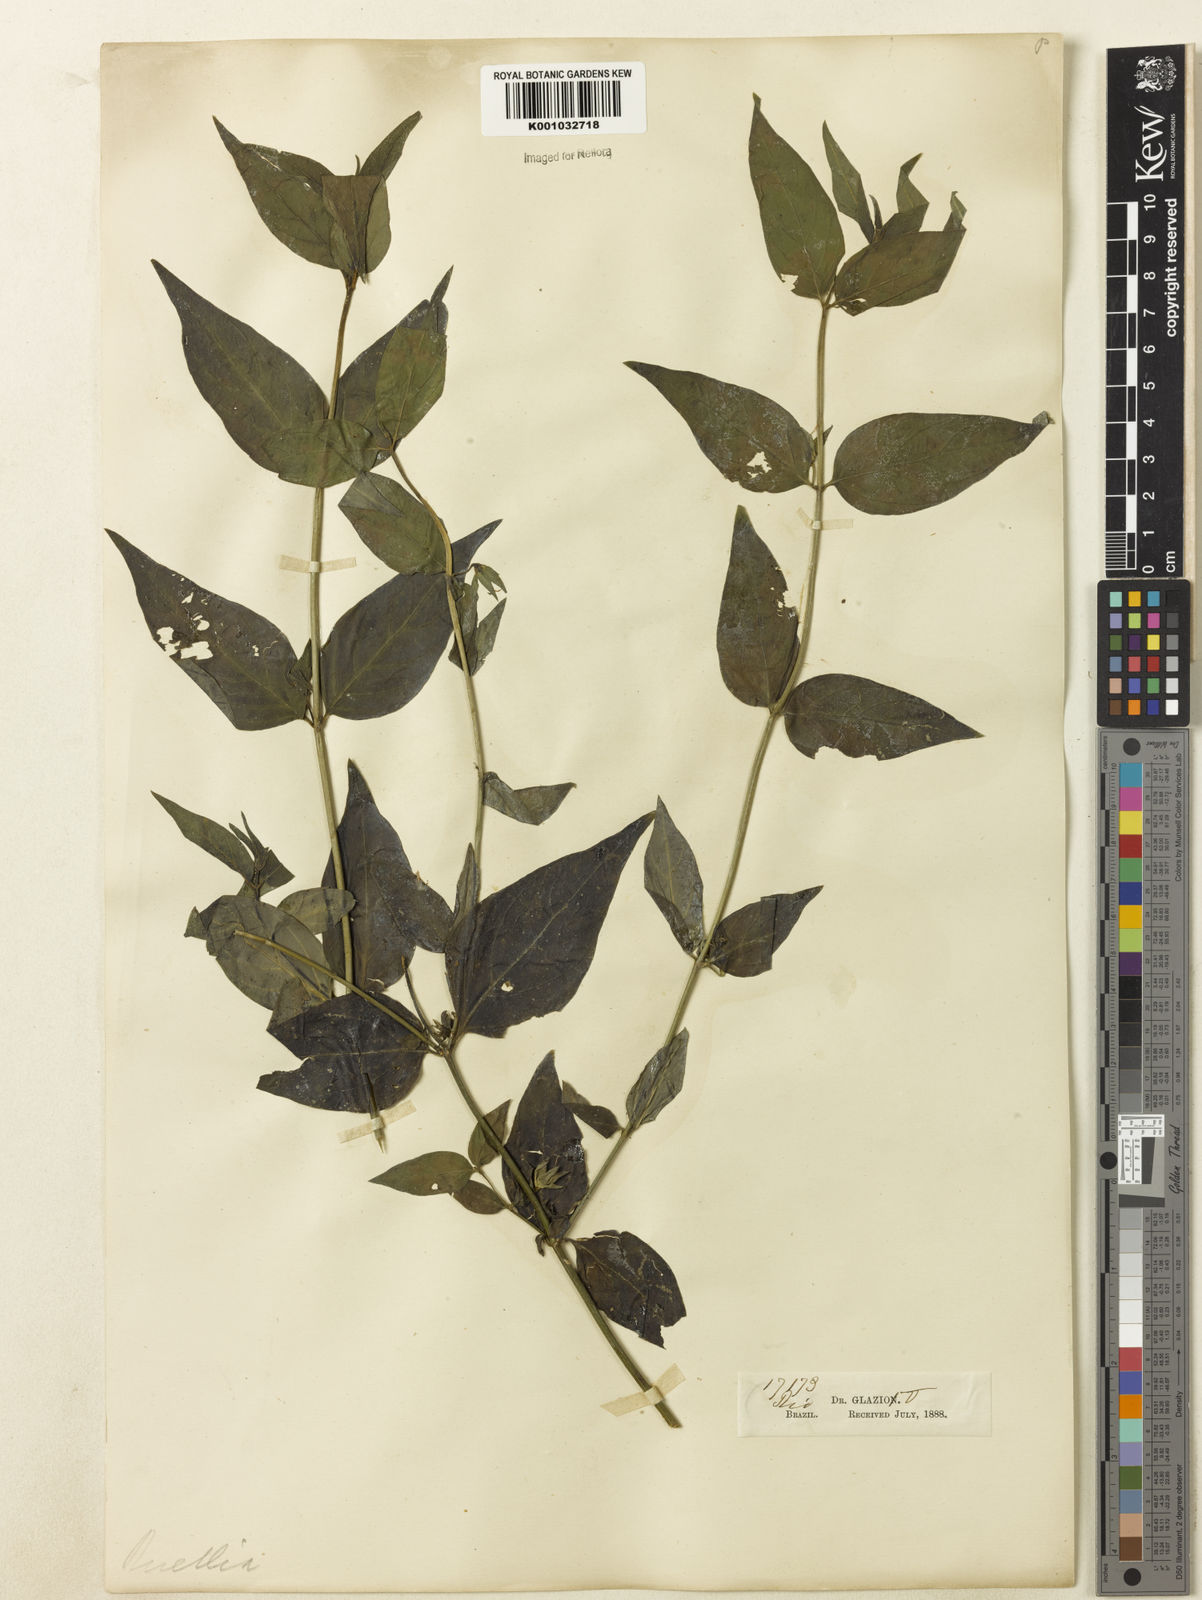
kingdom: Plantae
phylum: Tracheophyta
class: Magnoliopsida
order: Lamiales
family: Acanthaceae
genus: Ruellia
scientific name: Ruellia
